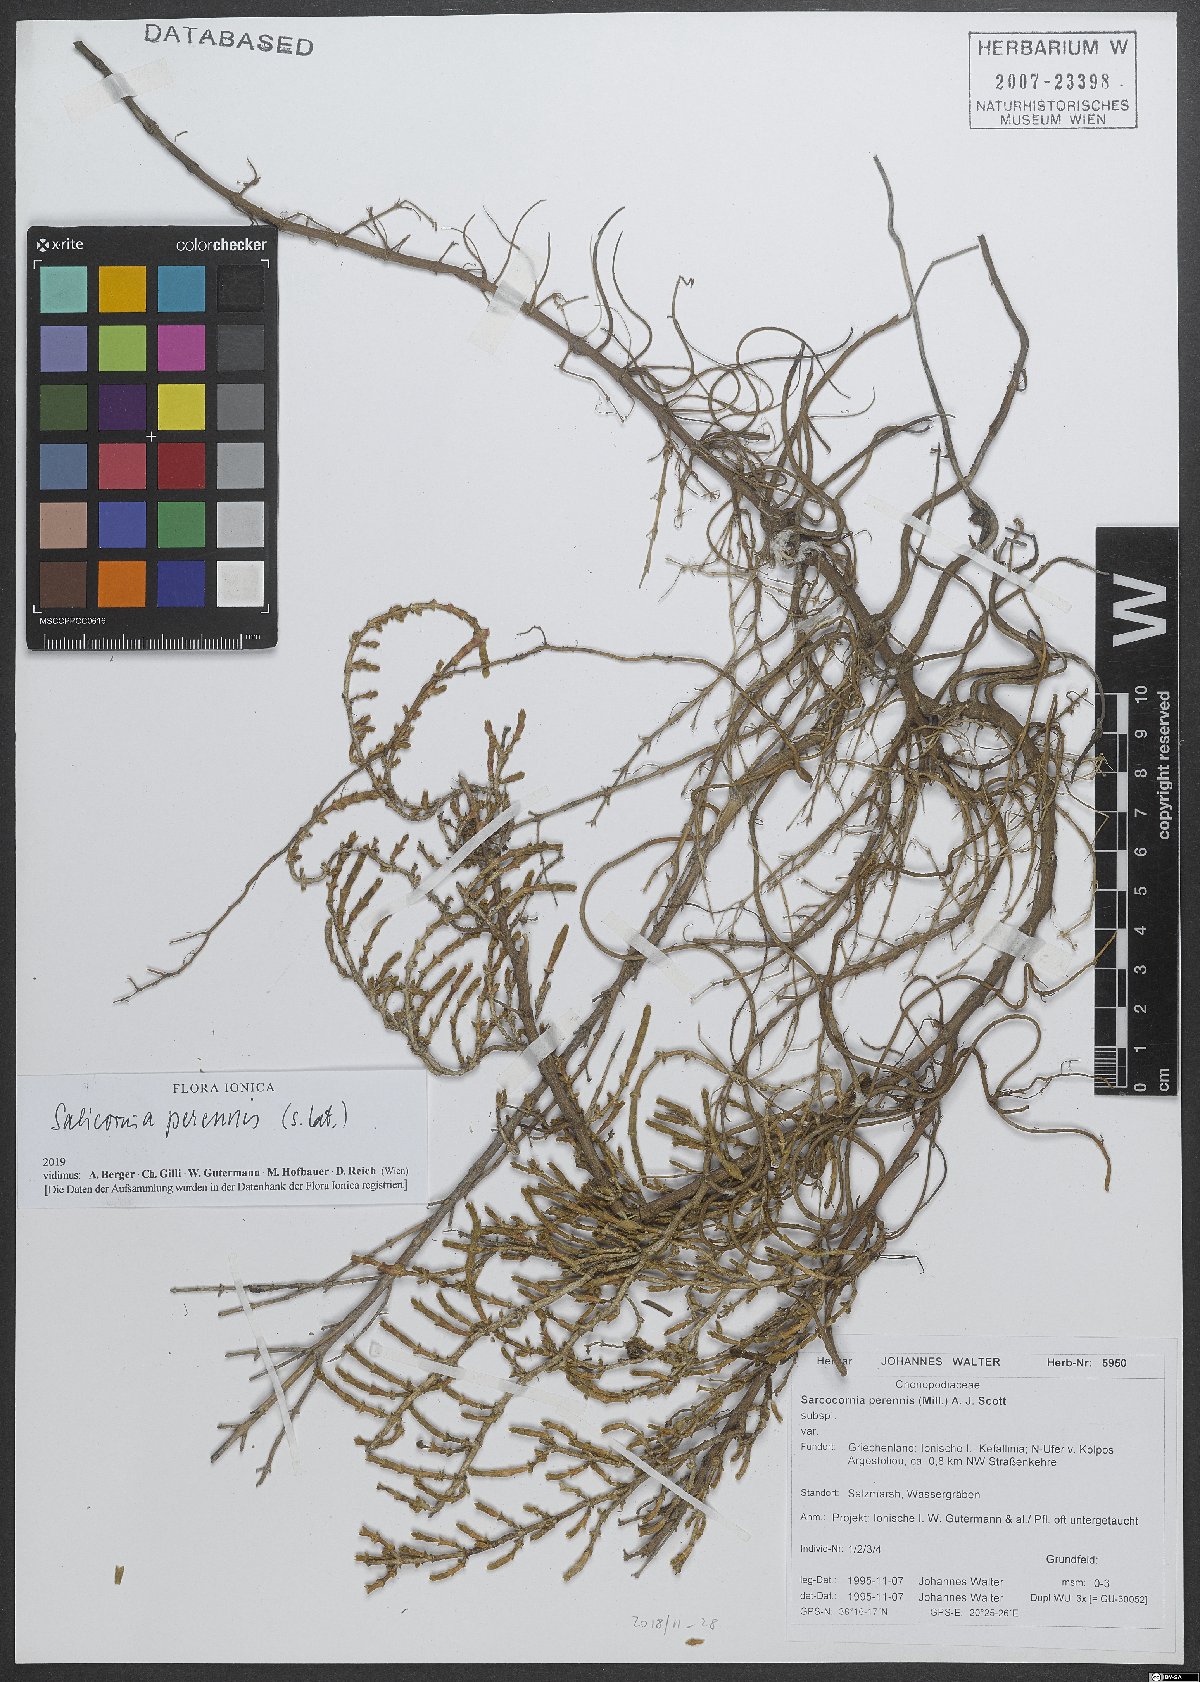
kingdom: Plantae
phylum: Tracheophyta
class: Magnoliopsida
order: Caryophyllales
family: Amaranthaceae
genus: Salicornia
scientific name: Salicornia perennis
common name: Chicken claws
